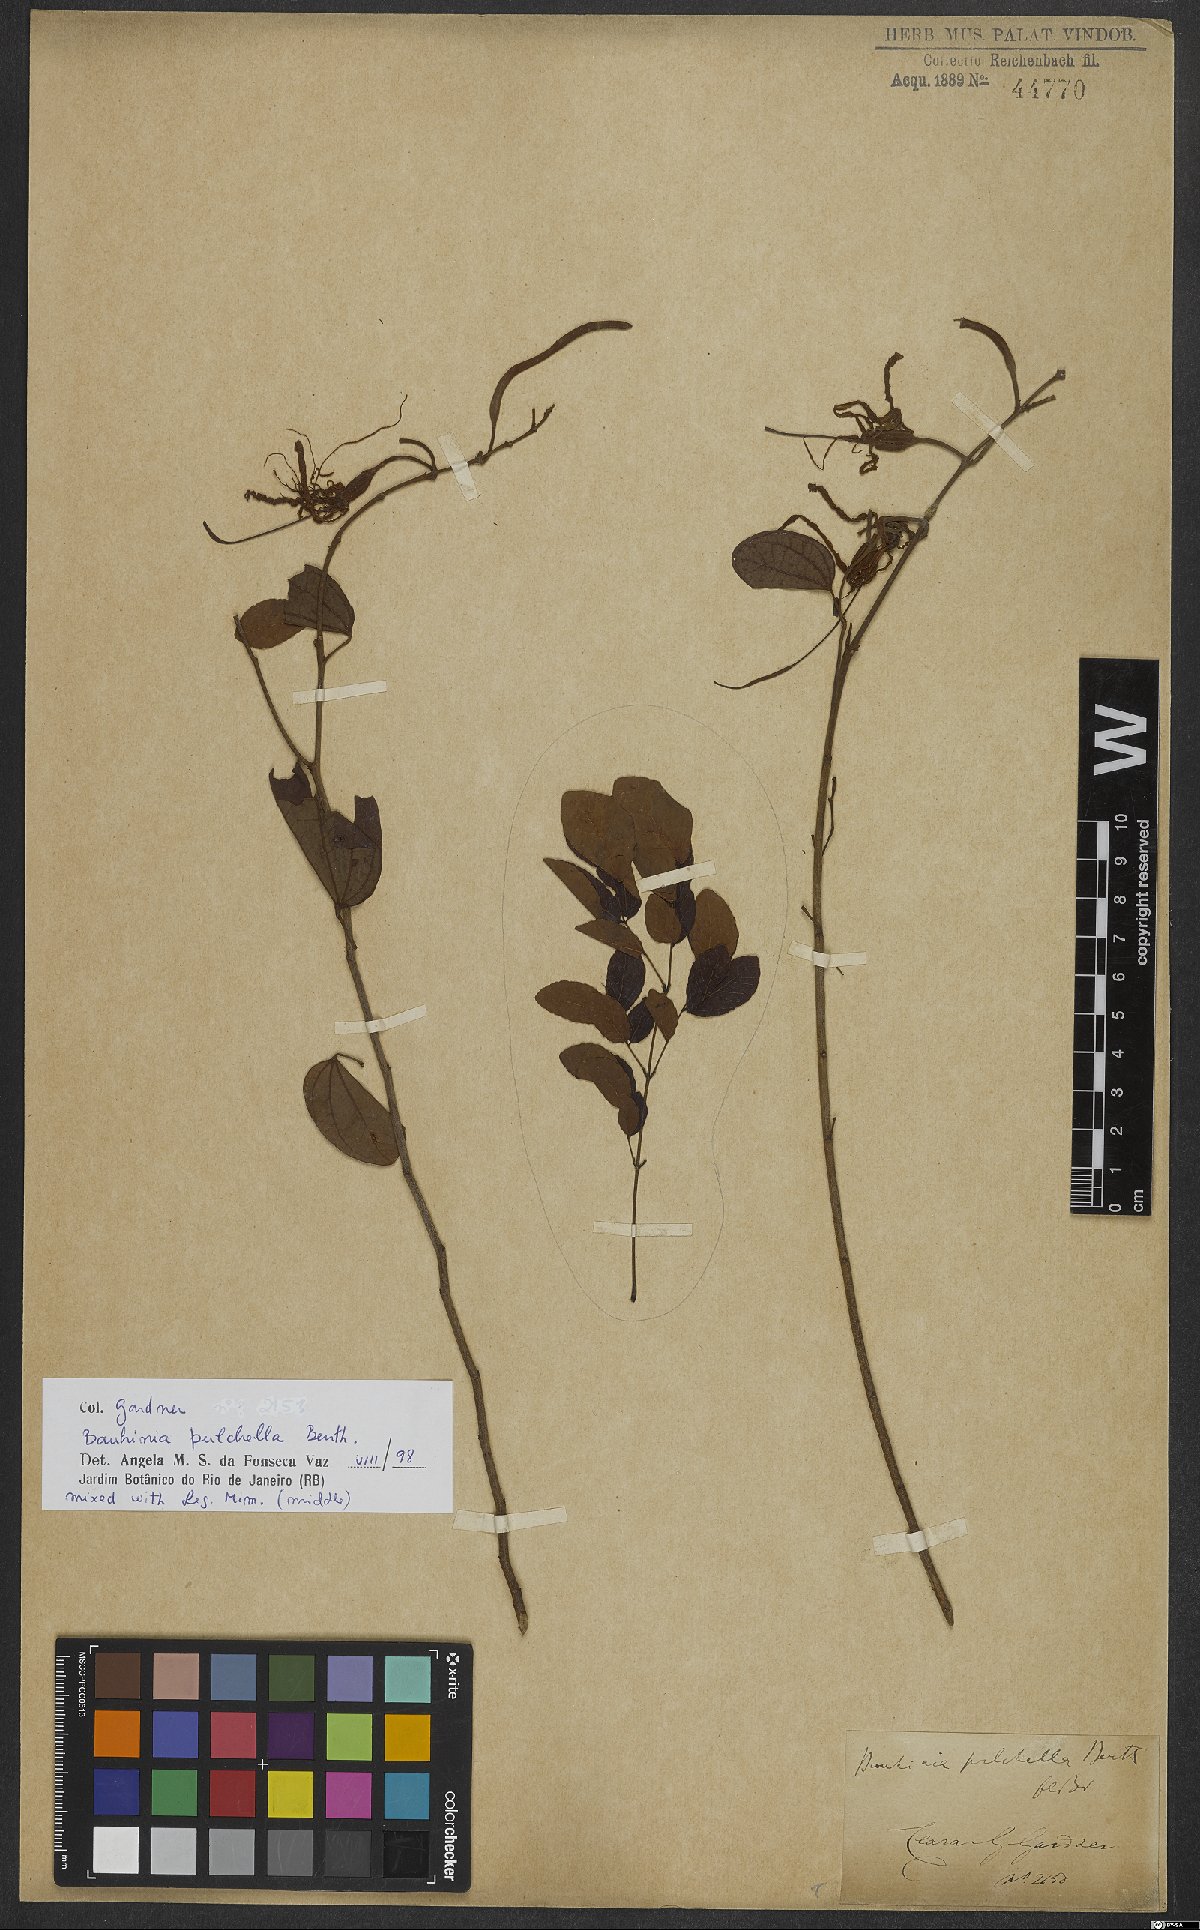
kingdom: Plantae
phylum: Tracheophyta
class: Magnoliopsida
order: Fabales
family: Fabaceae
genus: Bauhinia
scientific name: Bauhinia pulchella
